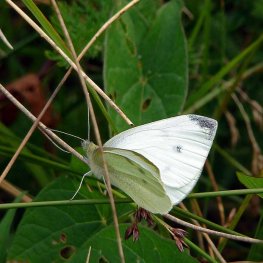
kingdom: Animalia
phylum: Arthropoda
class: Insecta
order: Lepidoptera
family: Pieridae
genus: Pieris
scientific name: Pieris rapae
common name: Cabbage White
